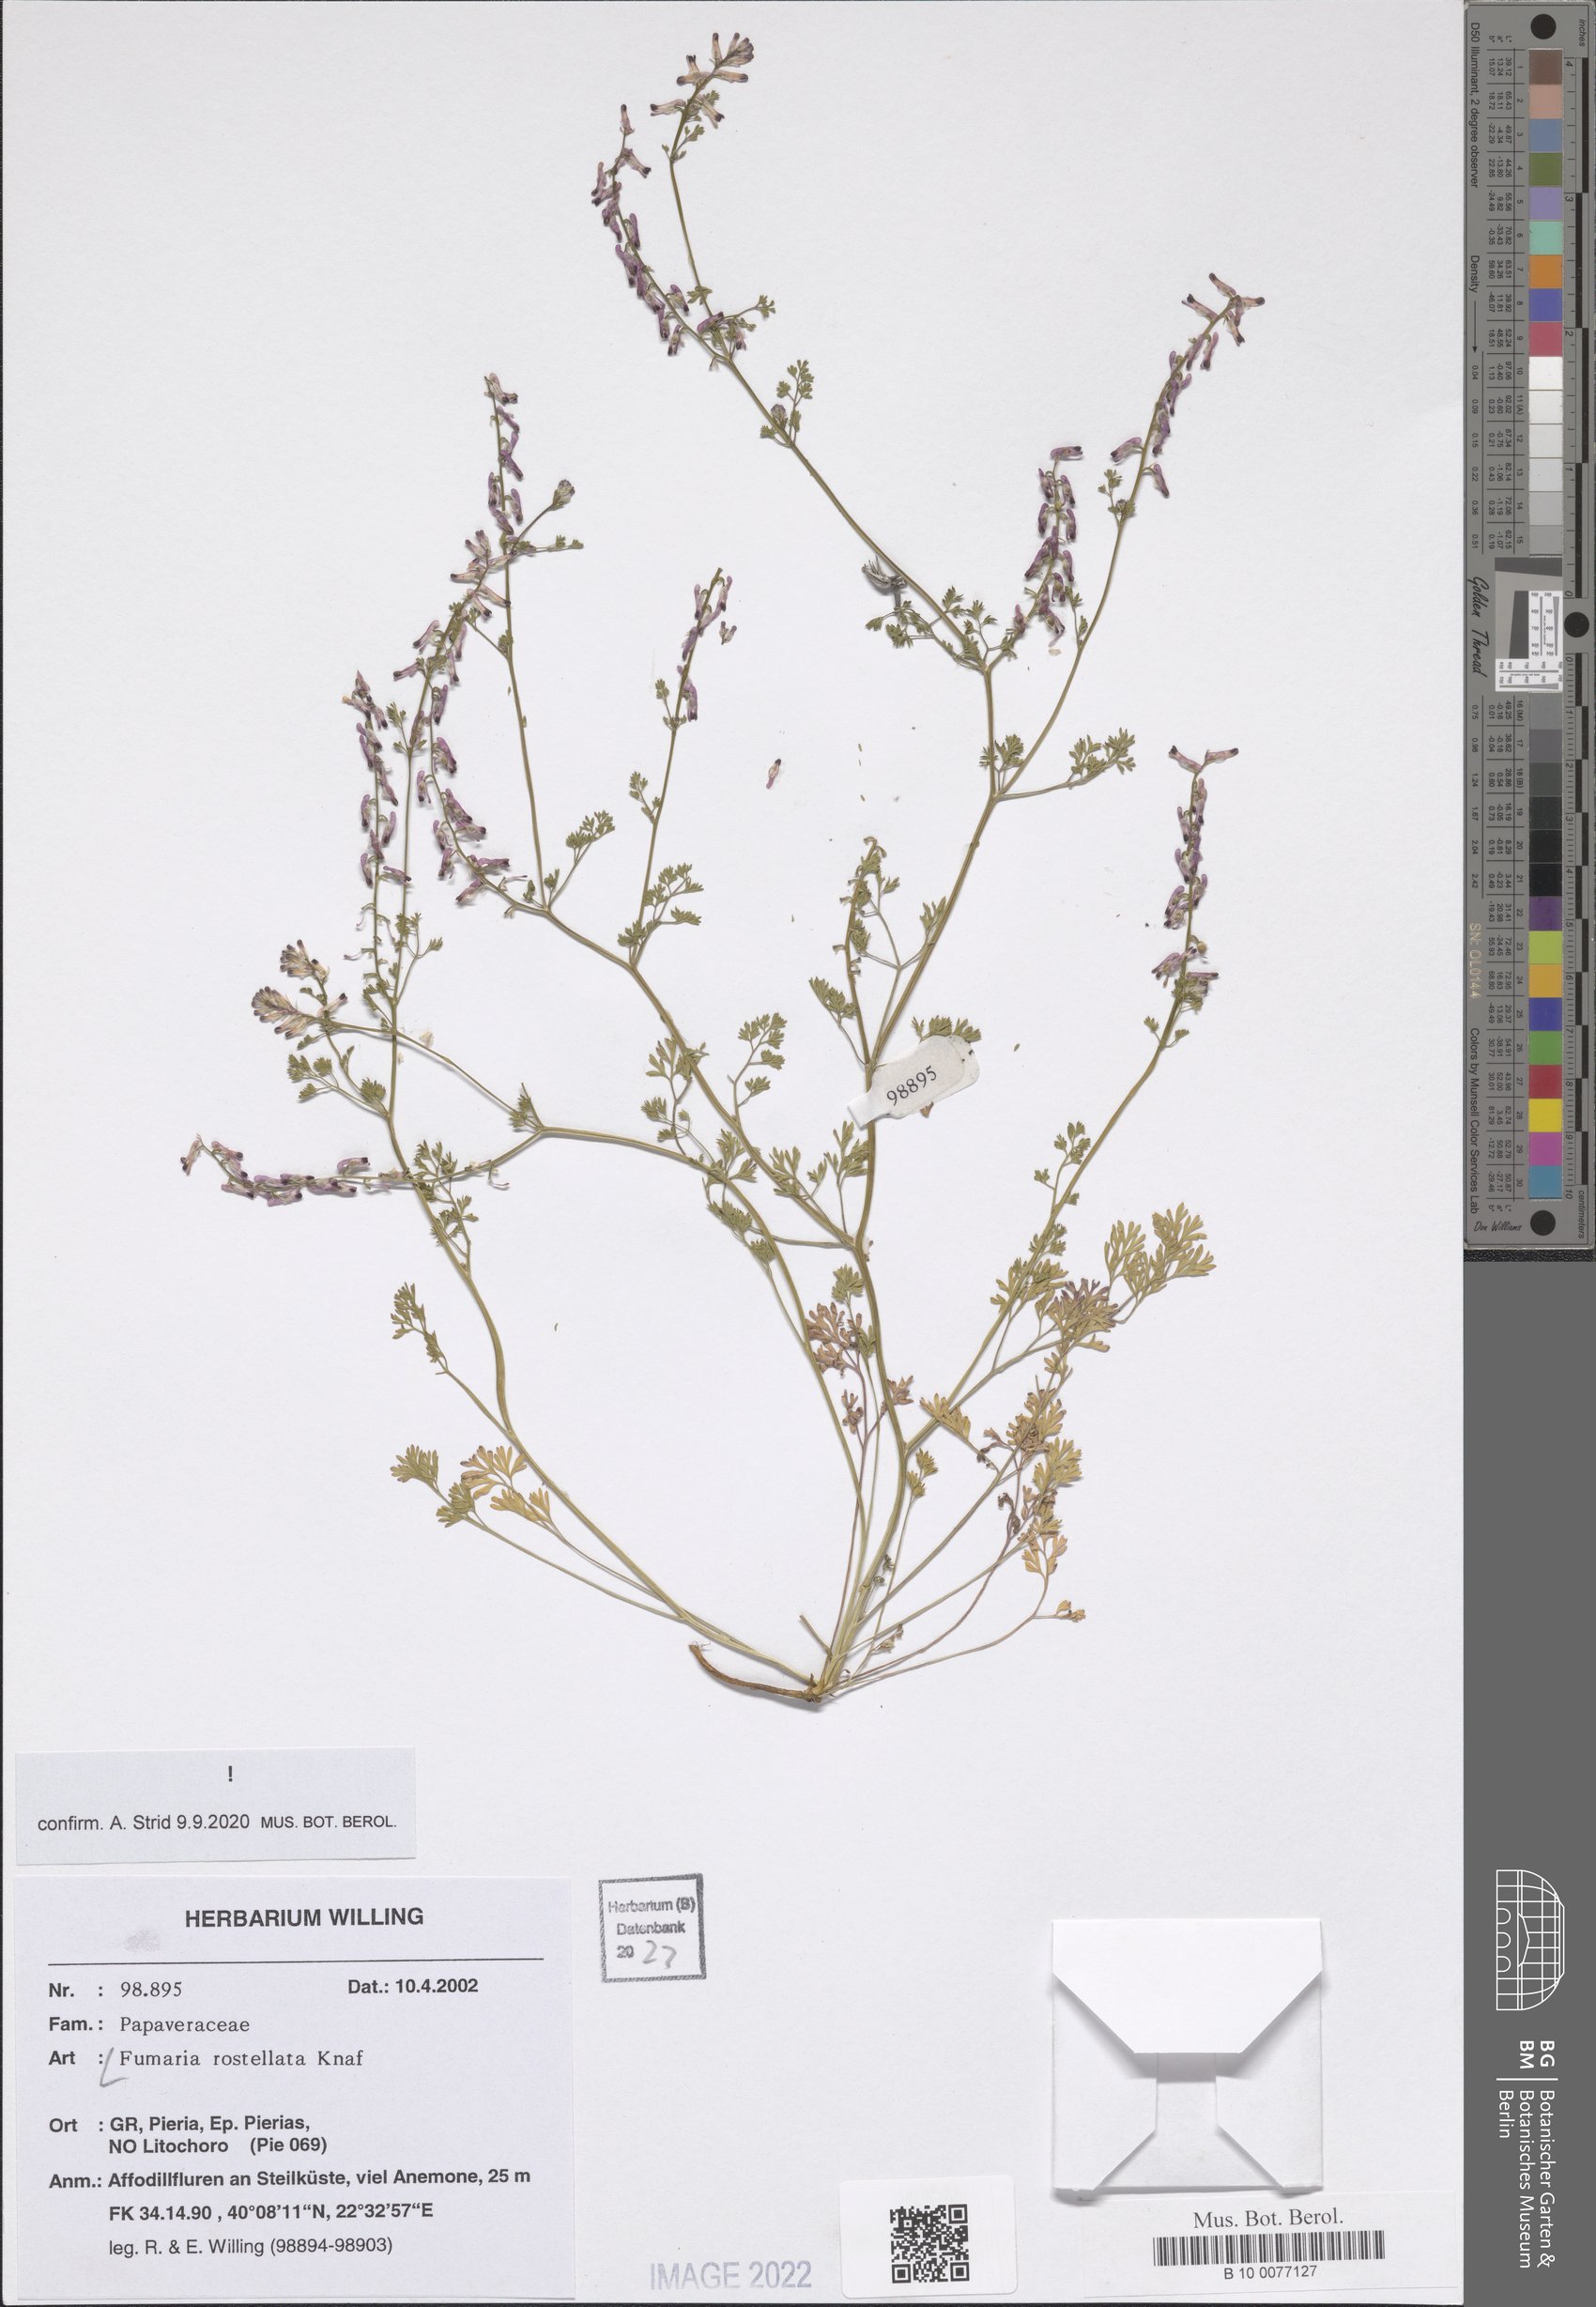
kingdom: Plantae
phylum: Tracheophyta
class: Magnoliopsida
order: Ranunculales
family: Papaveraceae
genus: Fumaria
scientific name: Fumaria rostellata
